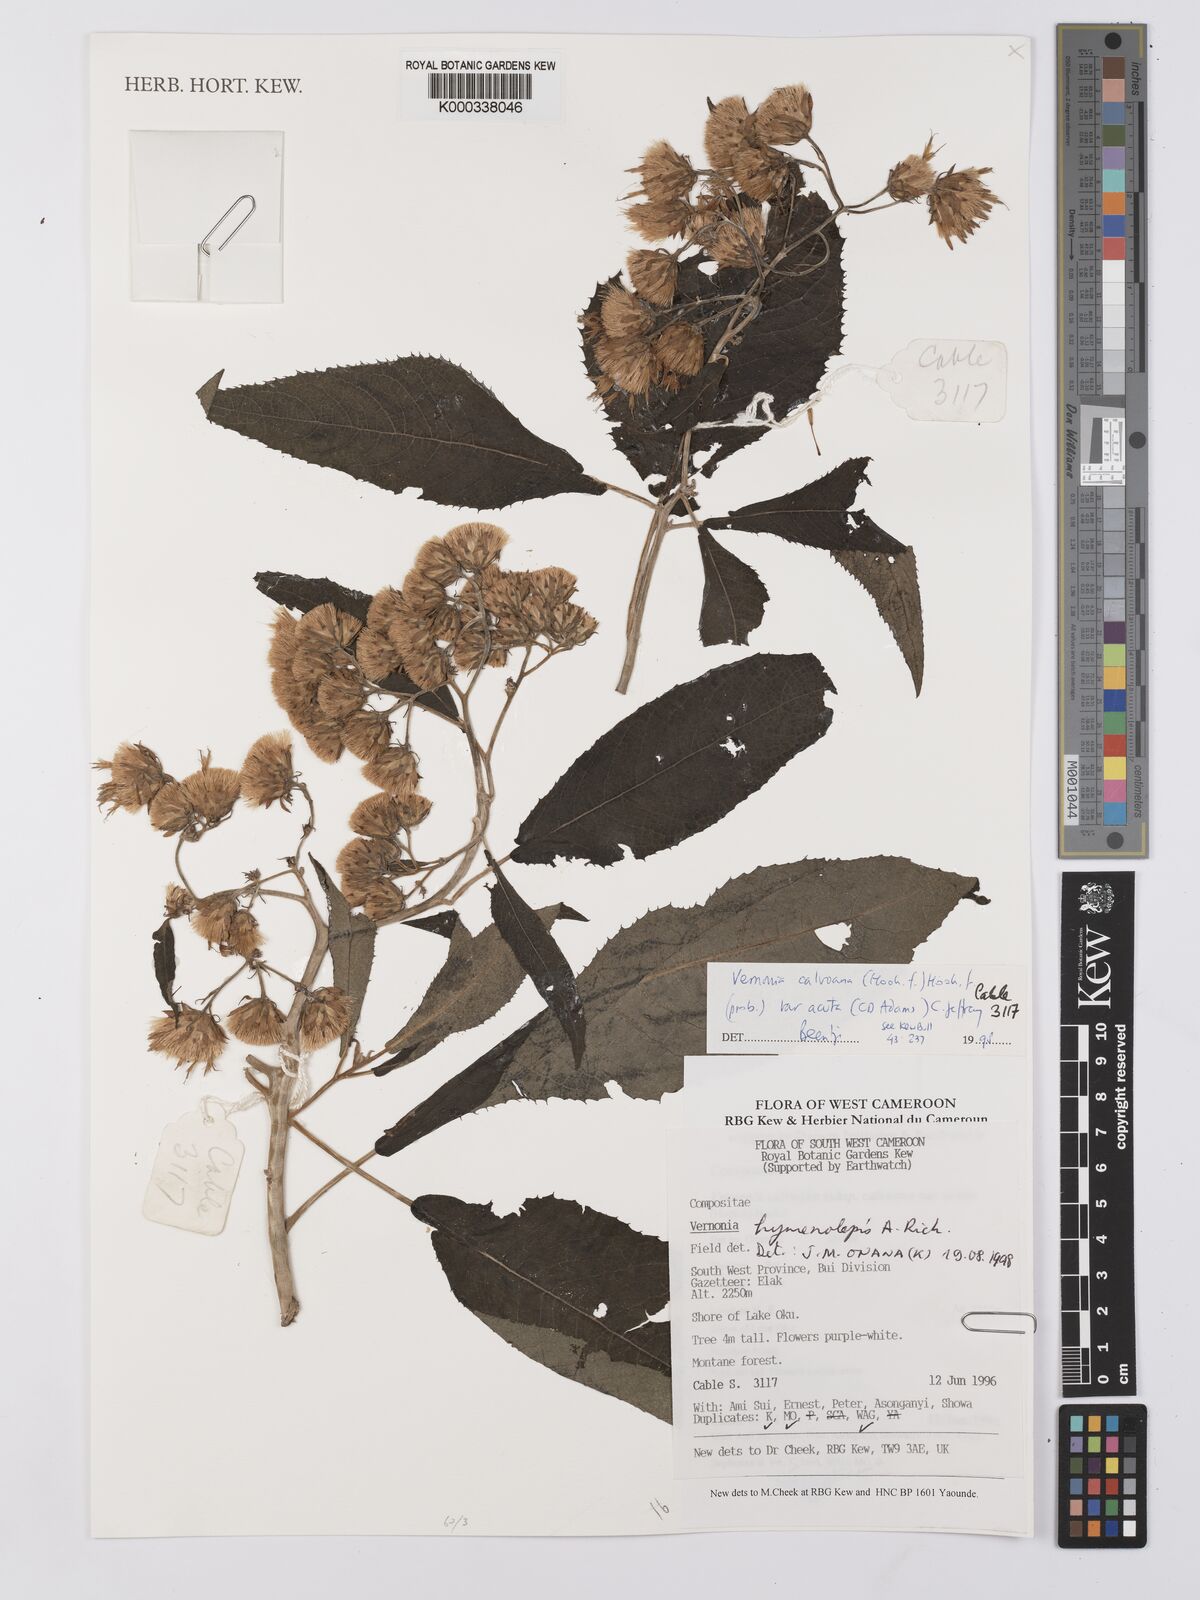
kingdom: Plantae
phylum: Tracheophyta
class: Magnoliopsida
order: Asterales
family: Asteraceae
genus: Baccharoides
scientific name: Baccharoides calvoana
